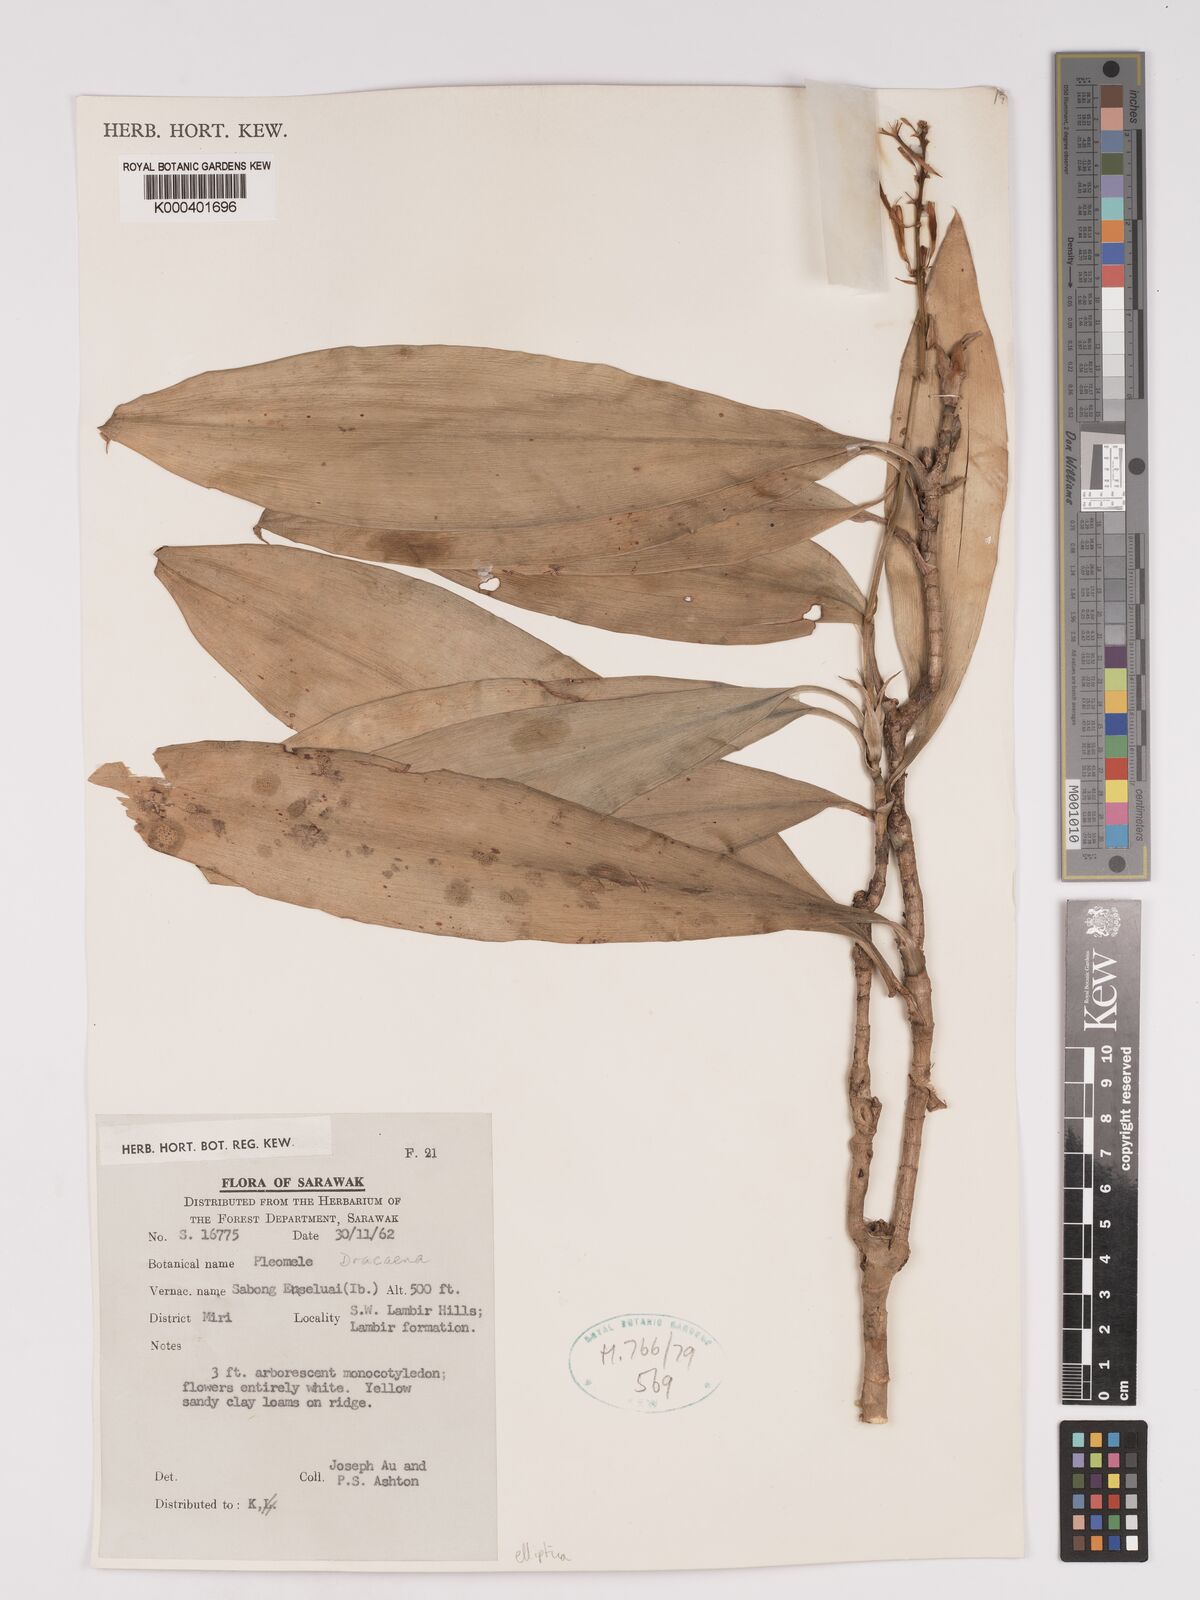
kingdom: Plantae
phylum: Tracheophyta
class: Liliopsida
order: Asparagales
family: Asparagaceae
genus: Dracaena
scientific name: Dracaena elliptica
